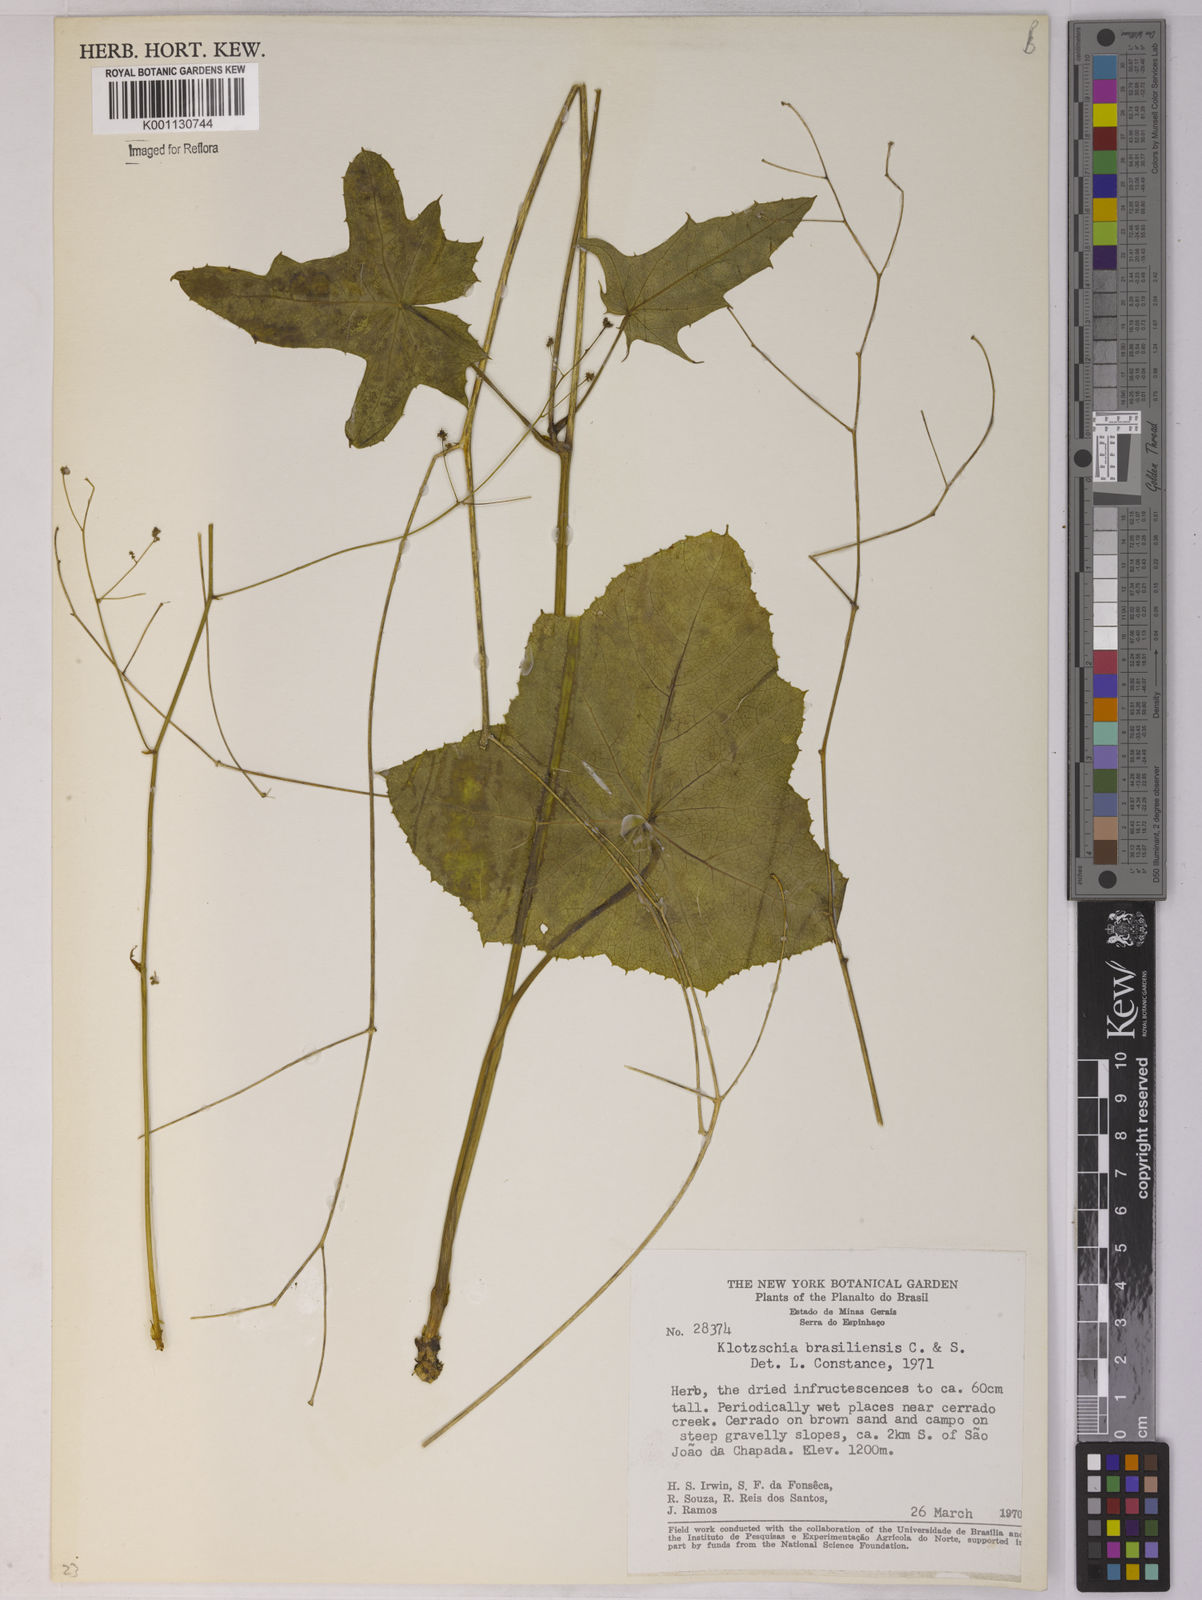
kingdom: Plantae
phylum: Tracheophyta
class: Magnoliopsida
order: Apiales
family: Apiaceae
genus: Klotzschia
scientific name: Klotzschia brasiliensis
